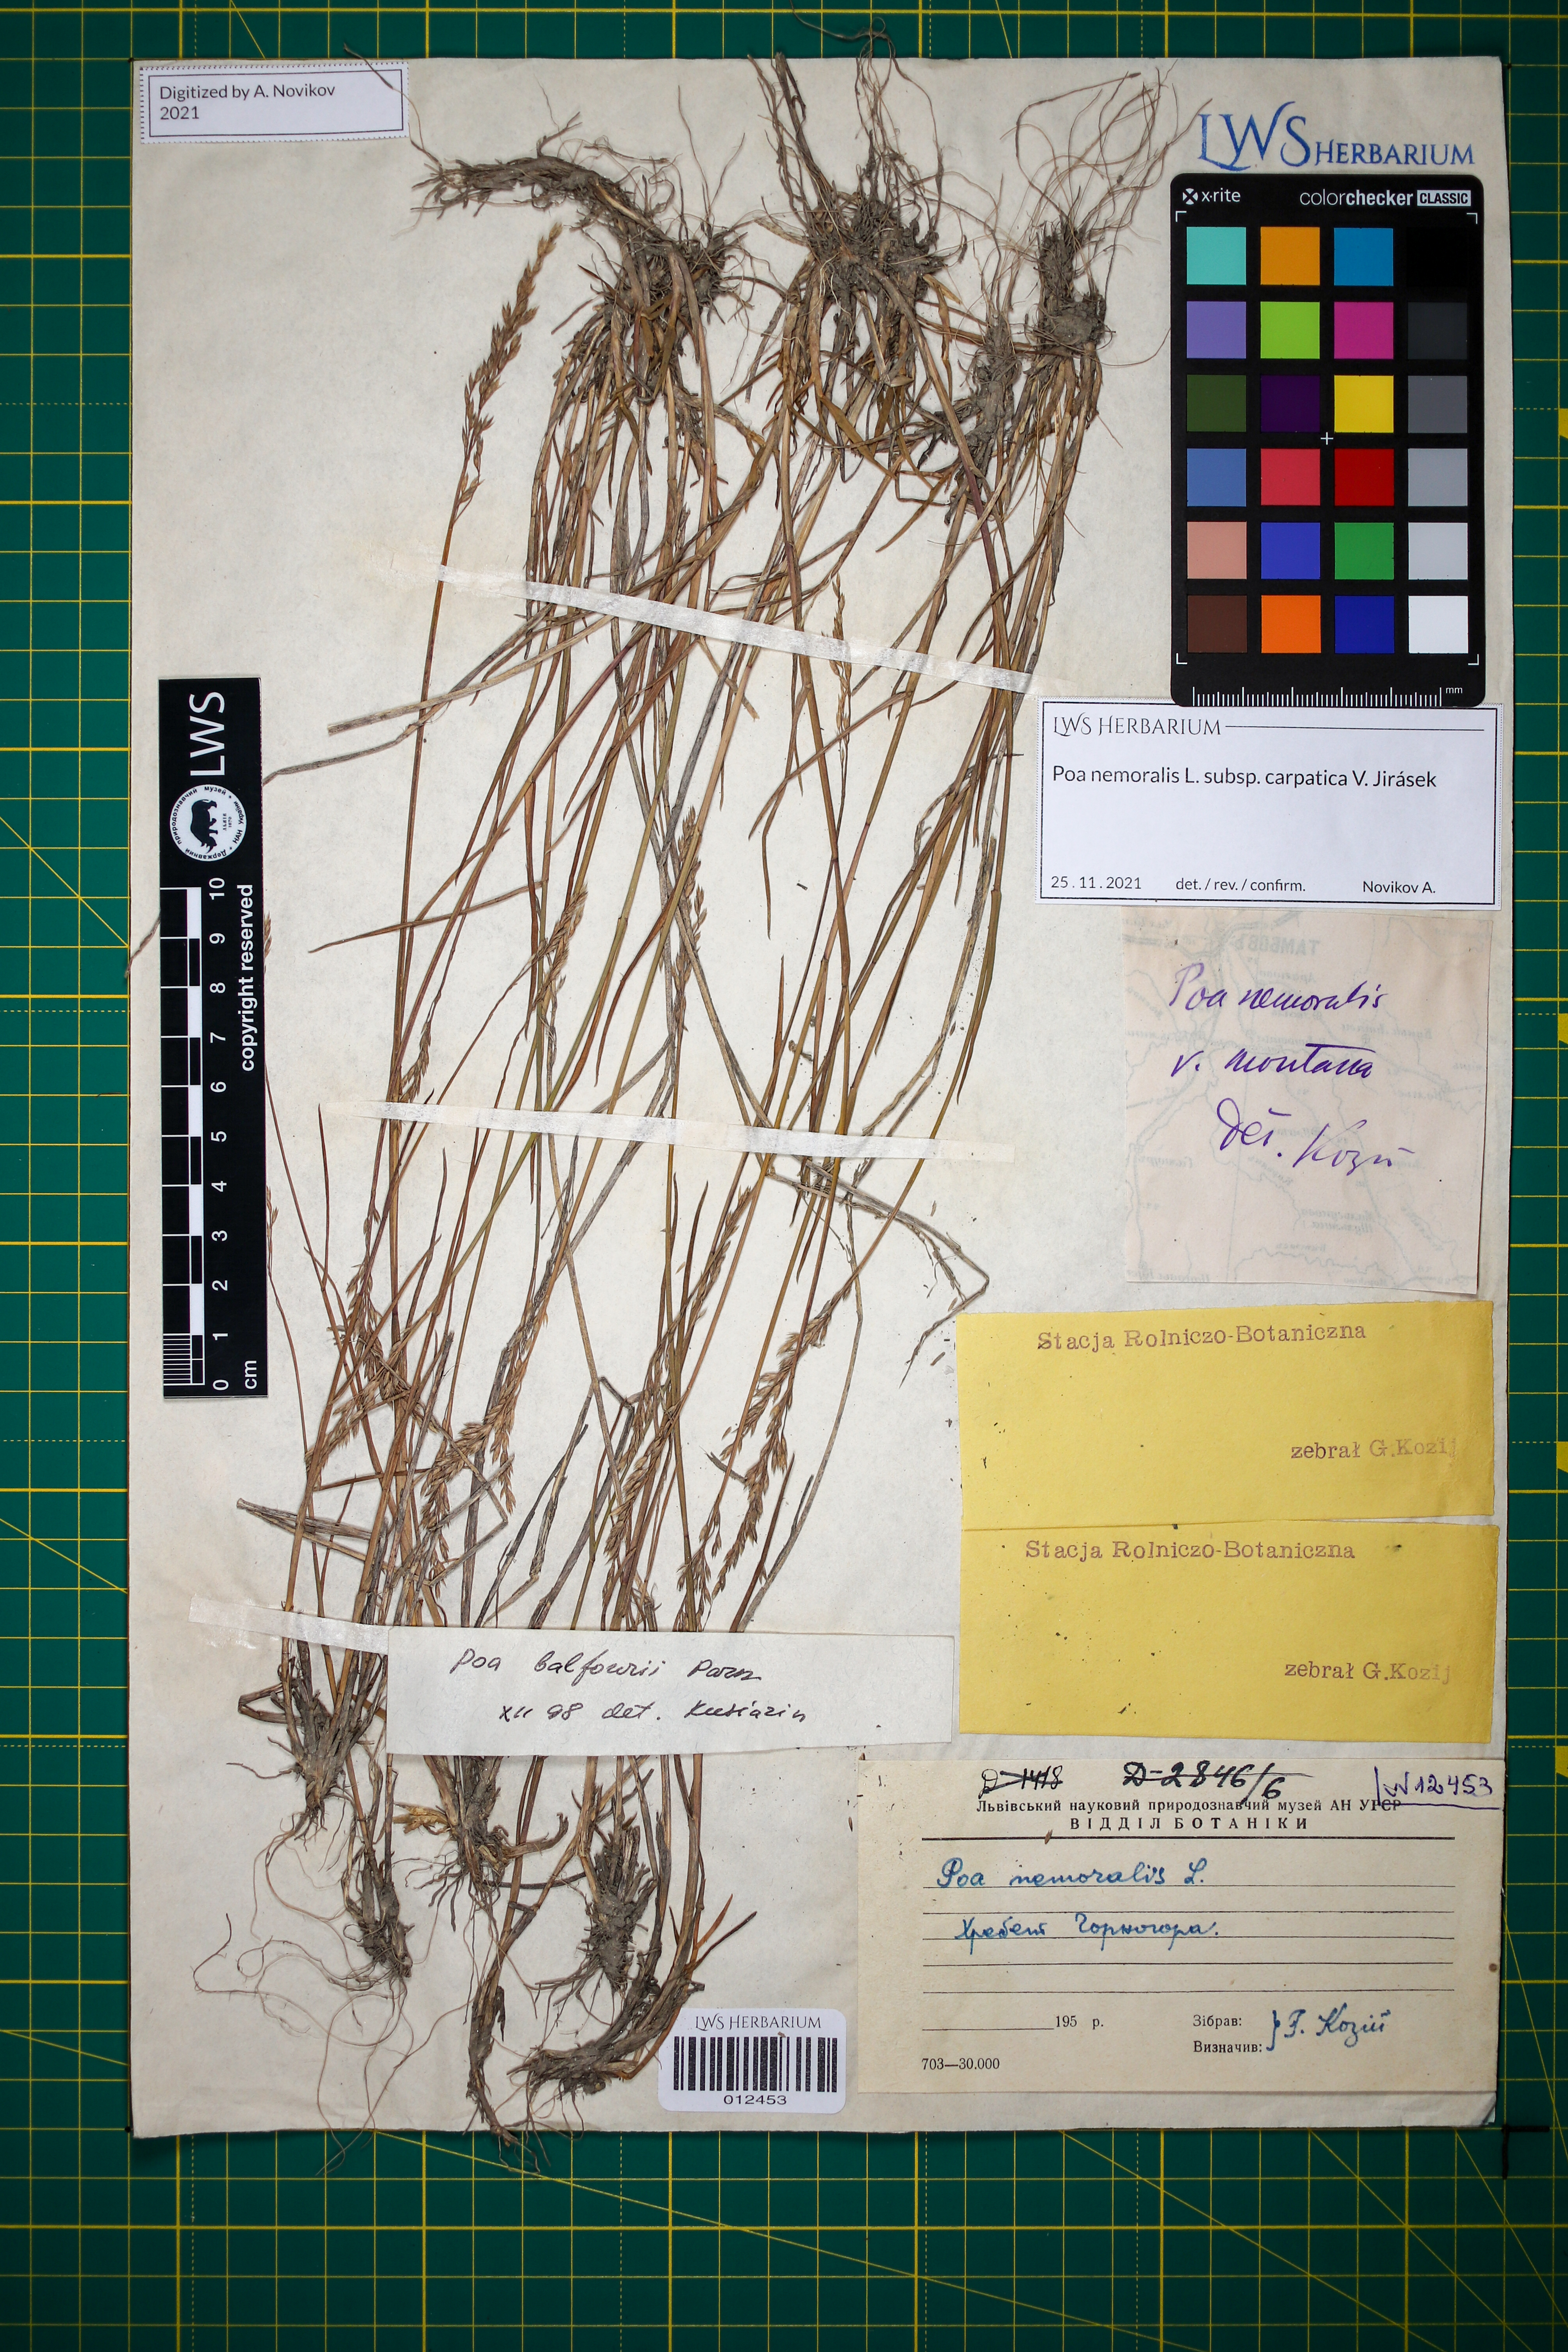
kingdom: Plantae
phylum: Tracheophyta
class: Liliopsida
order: Poales
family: Poaceae
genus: Poa
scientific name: Poa carpatica
